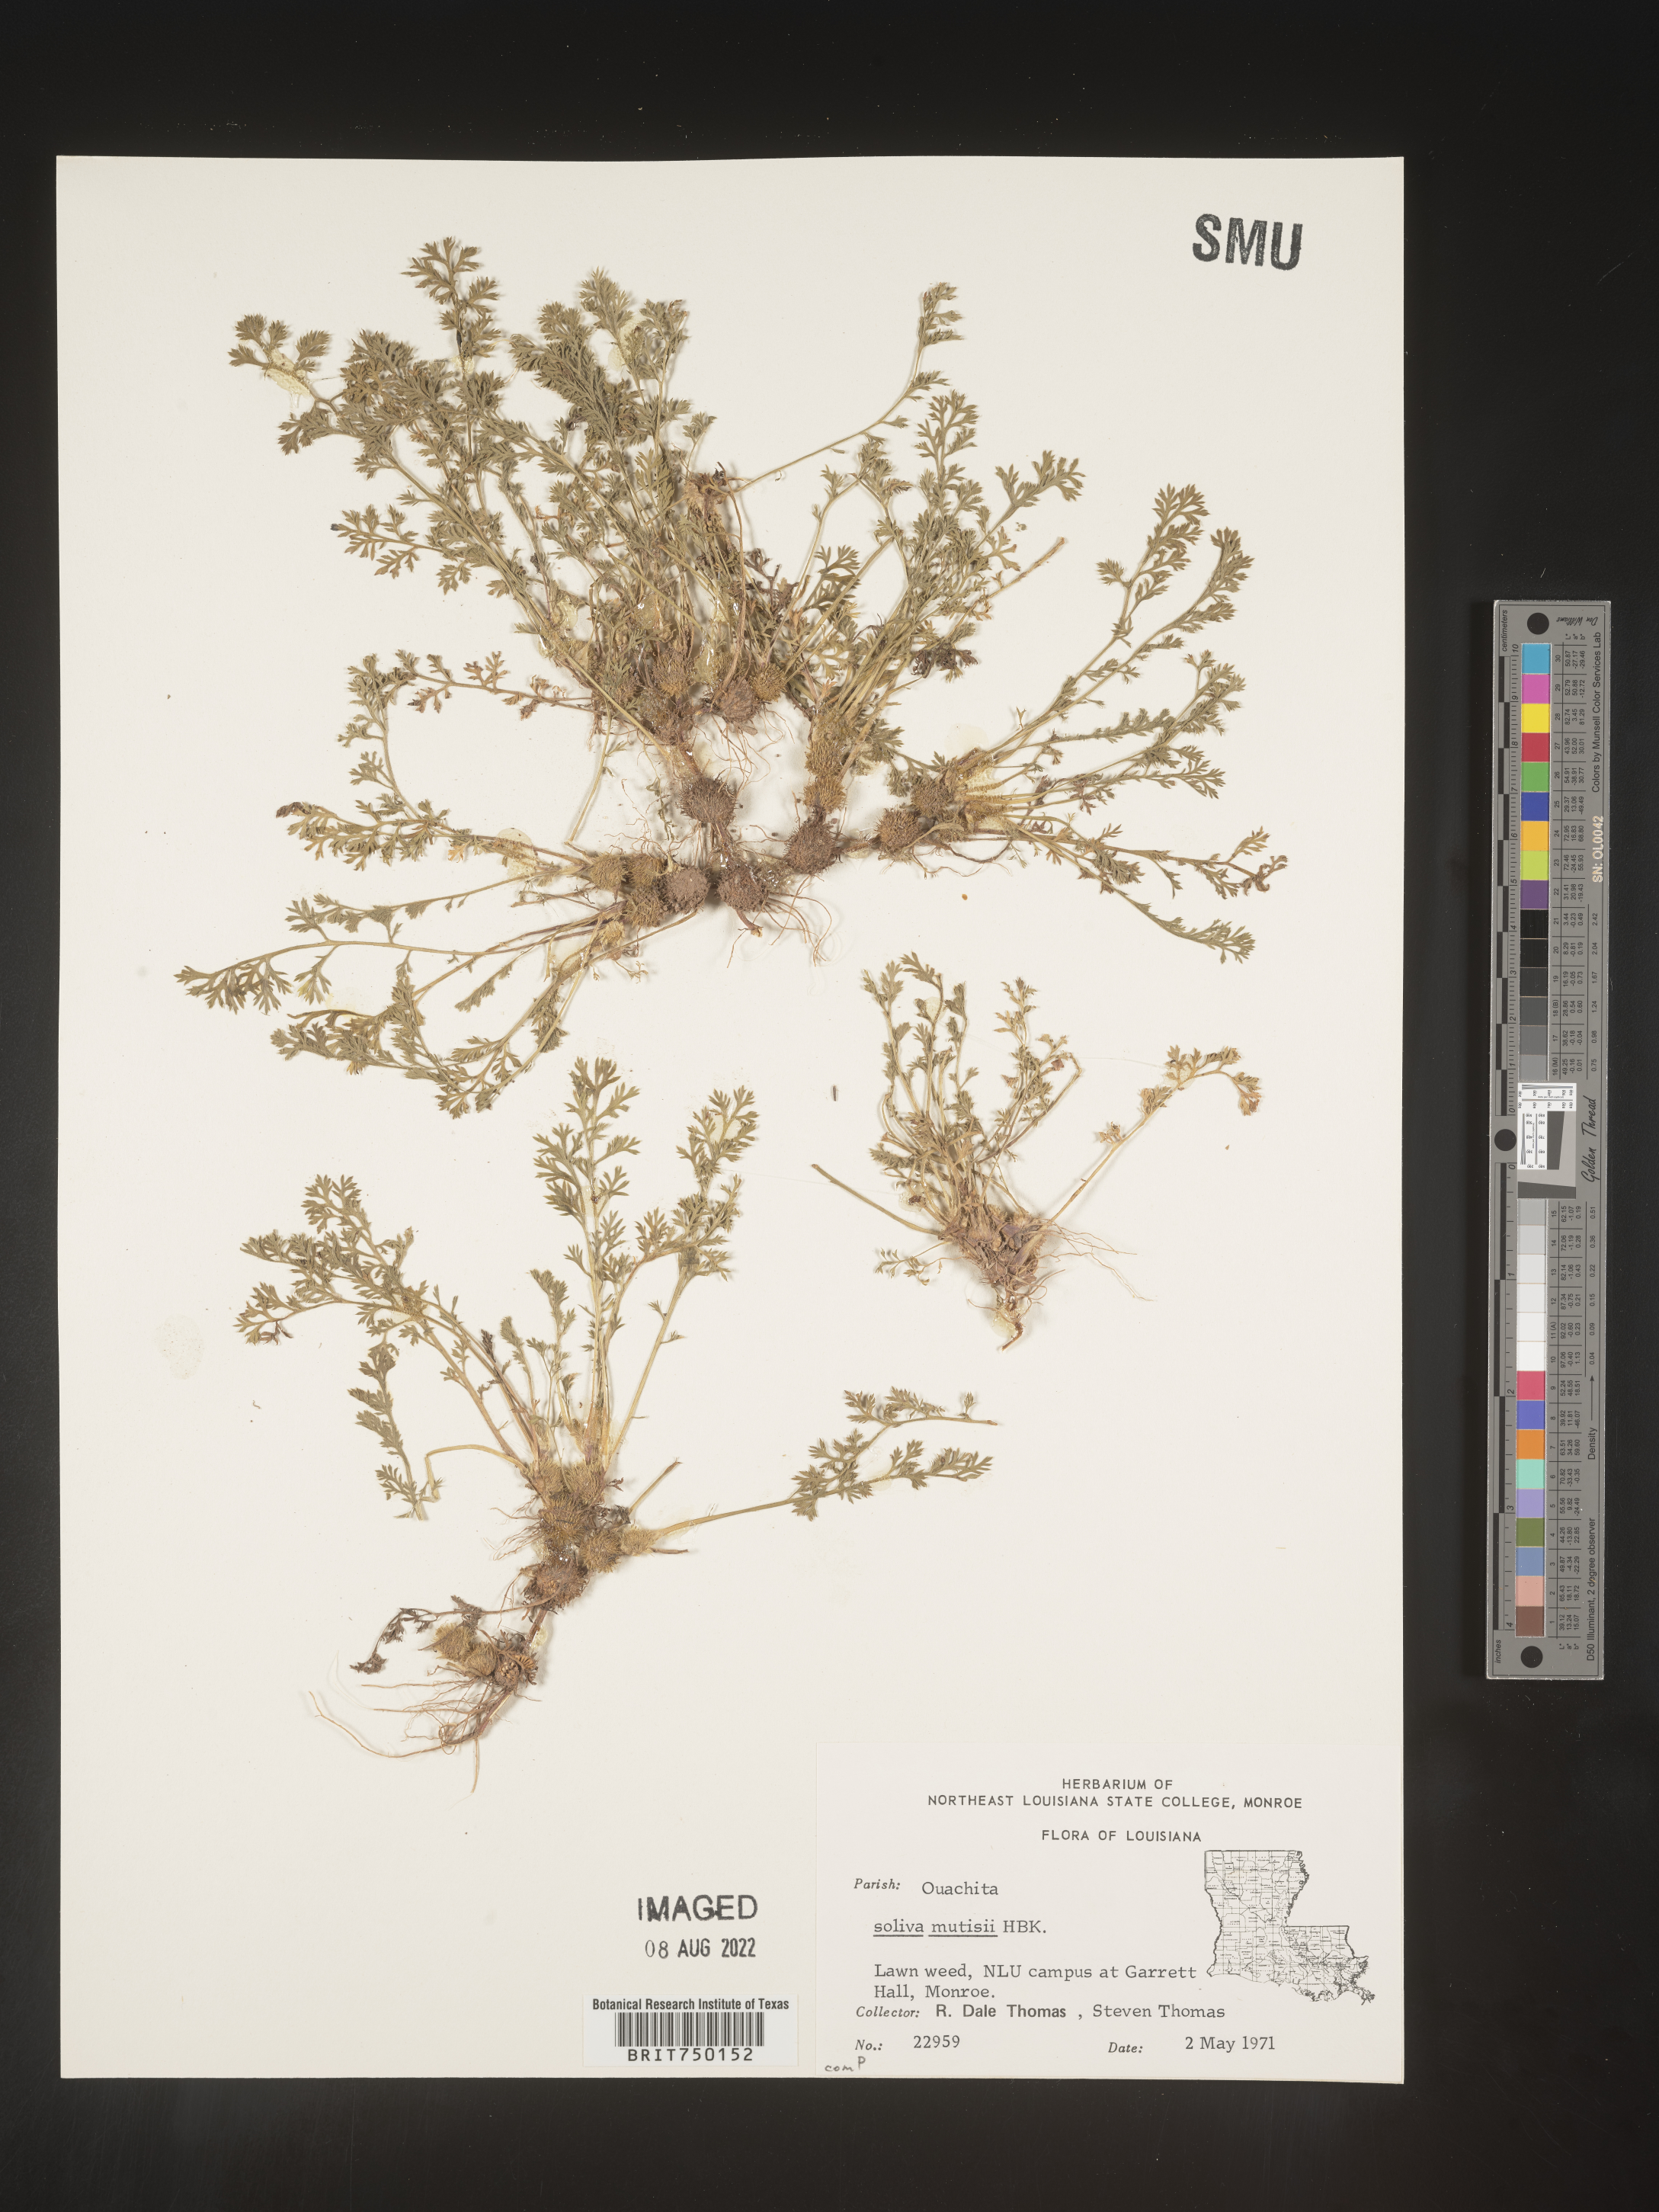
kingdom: Plantae
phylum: Tracheophyta
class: Magnoliopsida
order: Asterales
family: Asteraceae
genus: Soliva
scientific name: Soliva
